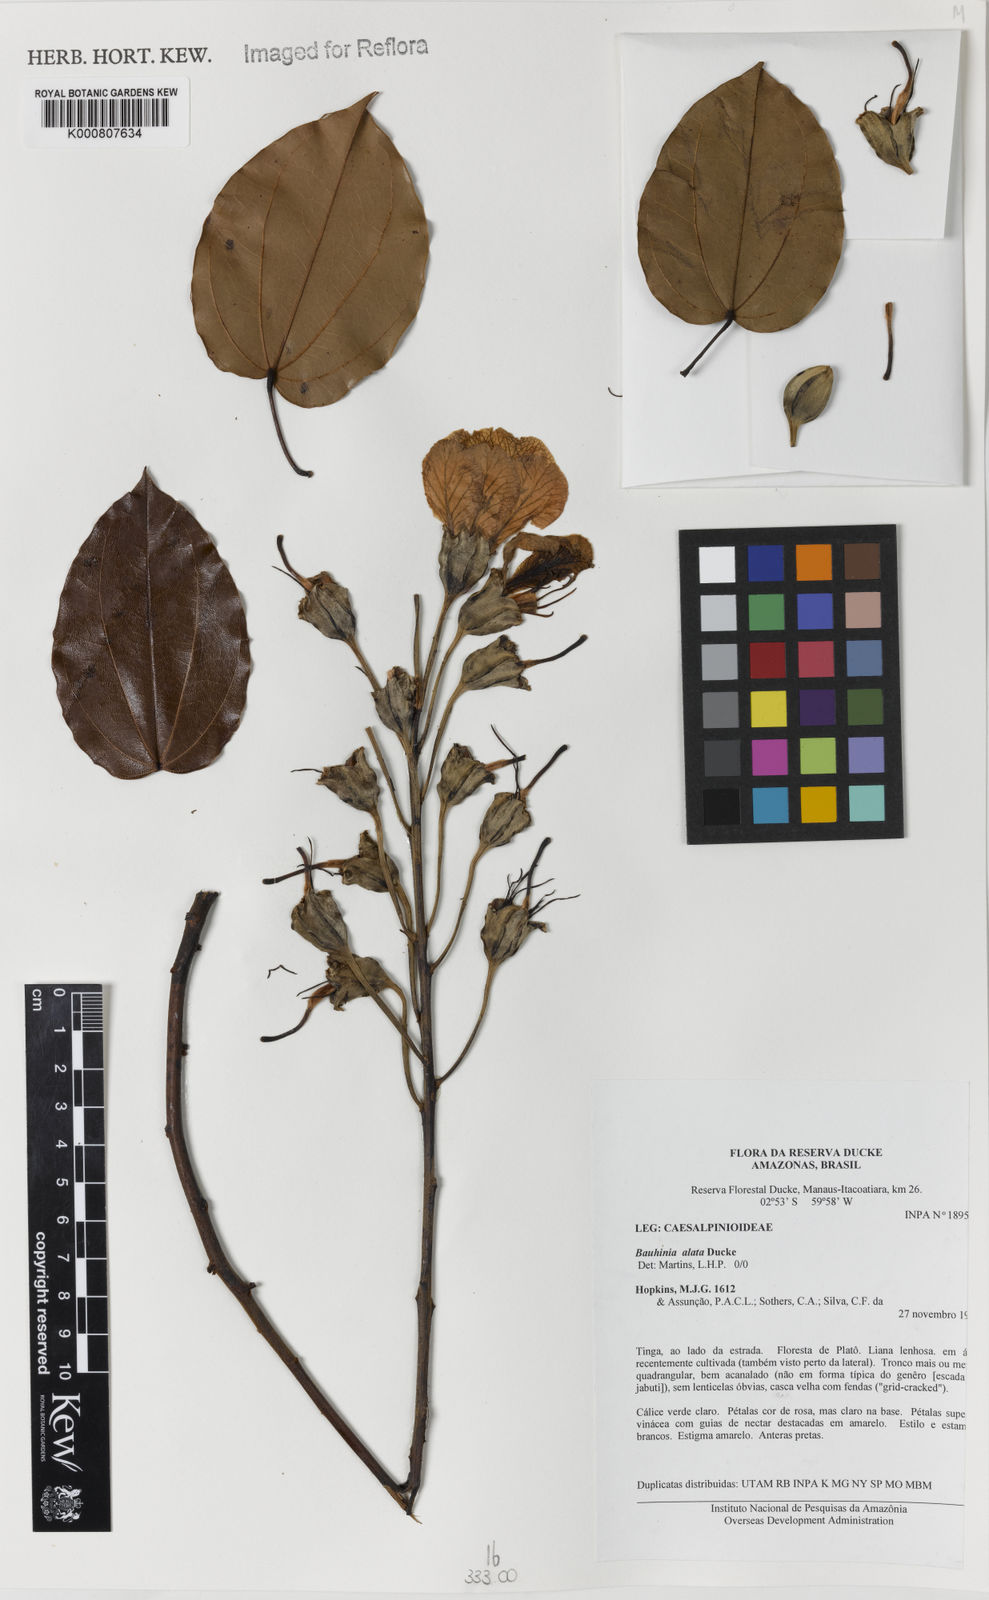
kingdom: Plantae
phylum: Tracheophyta
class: Magnoliopsida
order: Fabales
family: Fabaceae
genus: Schnella
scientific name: Schnella alata
